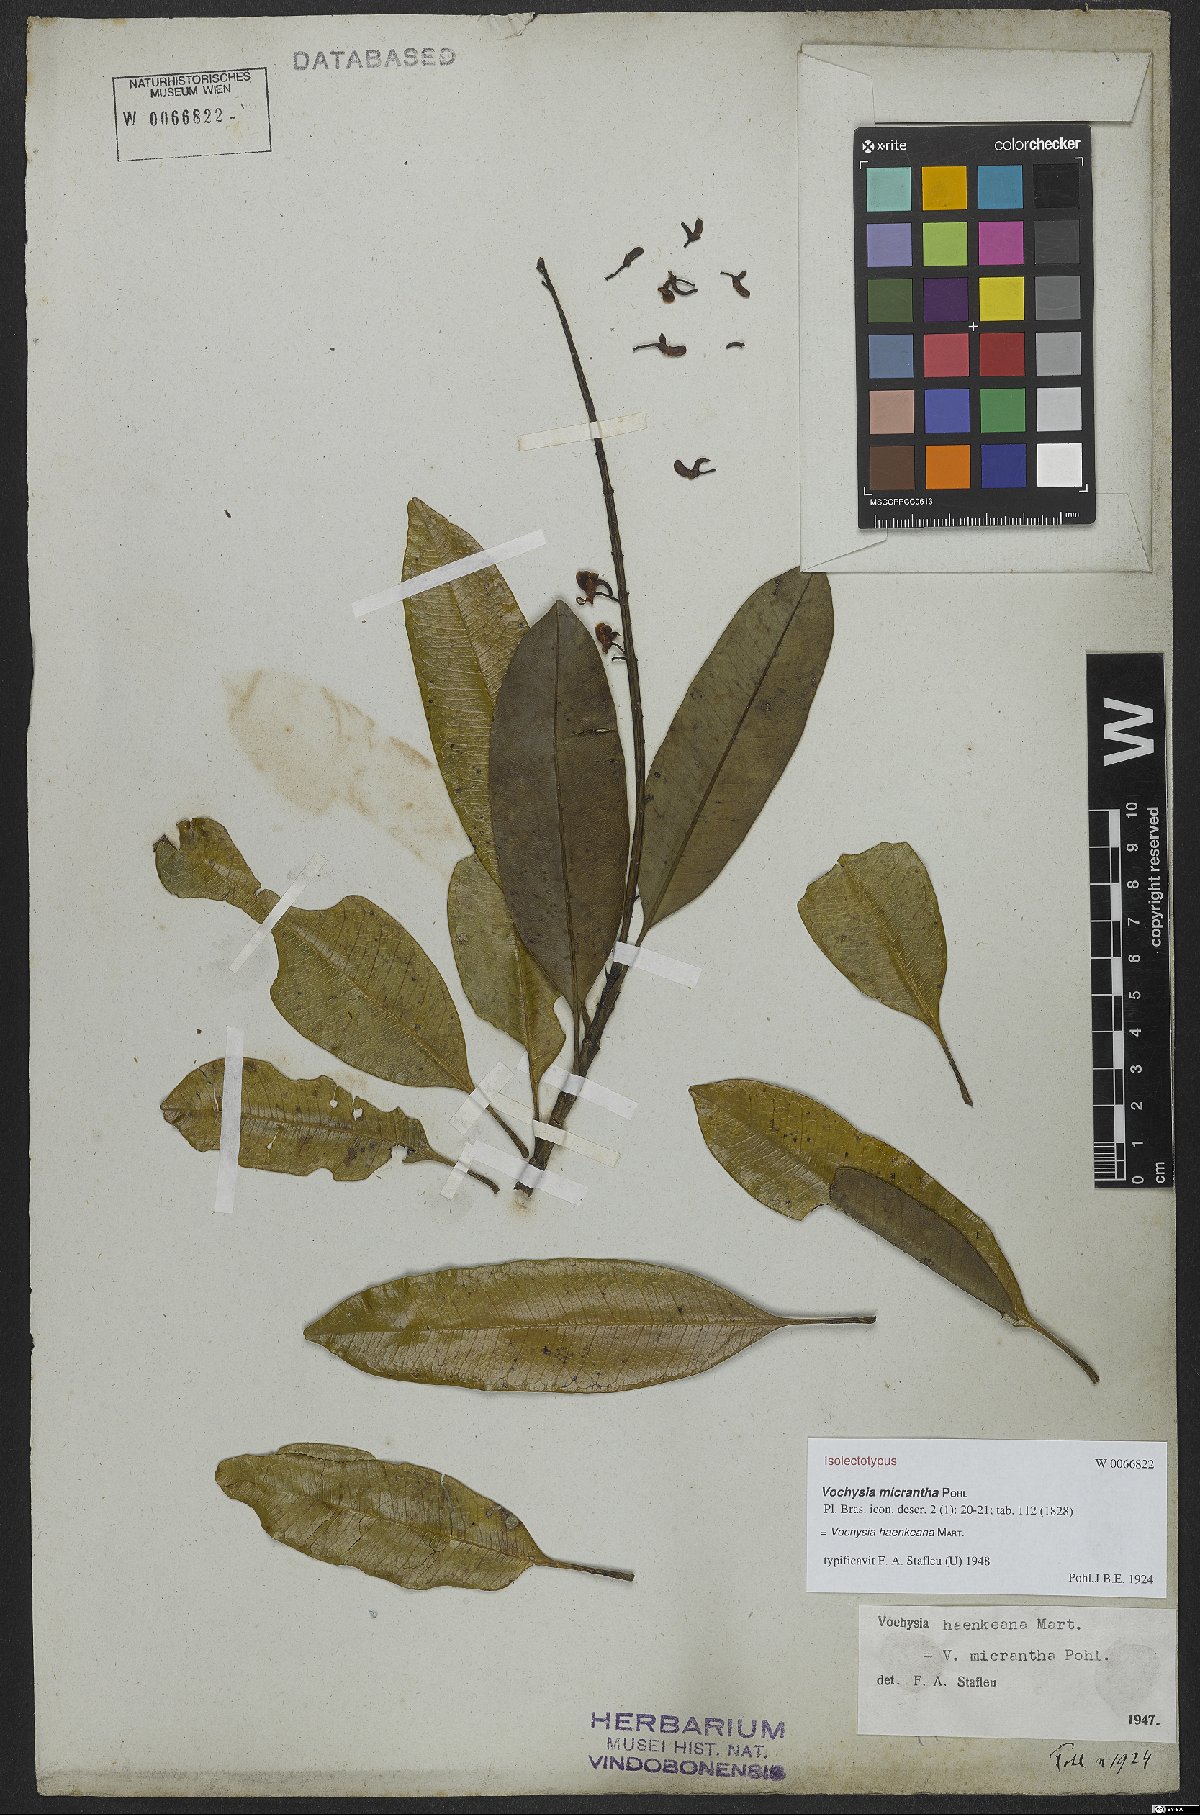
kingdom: Plantae
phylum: Tracheophyta
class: Magnoliopsida
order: Myrtales
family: Vochysiaceae
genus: Vochysia
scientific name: Vochysia haenkeana
